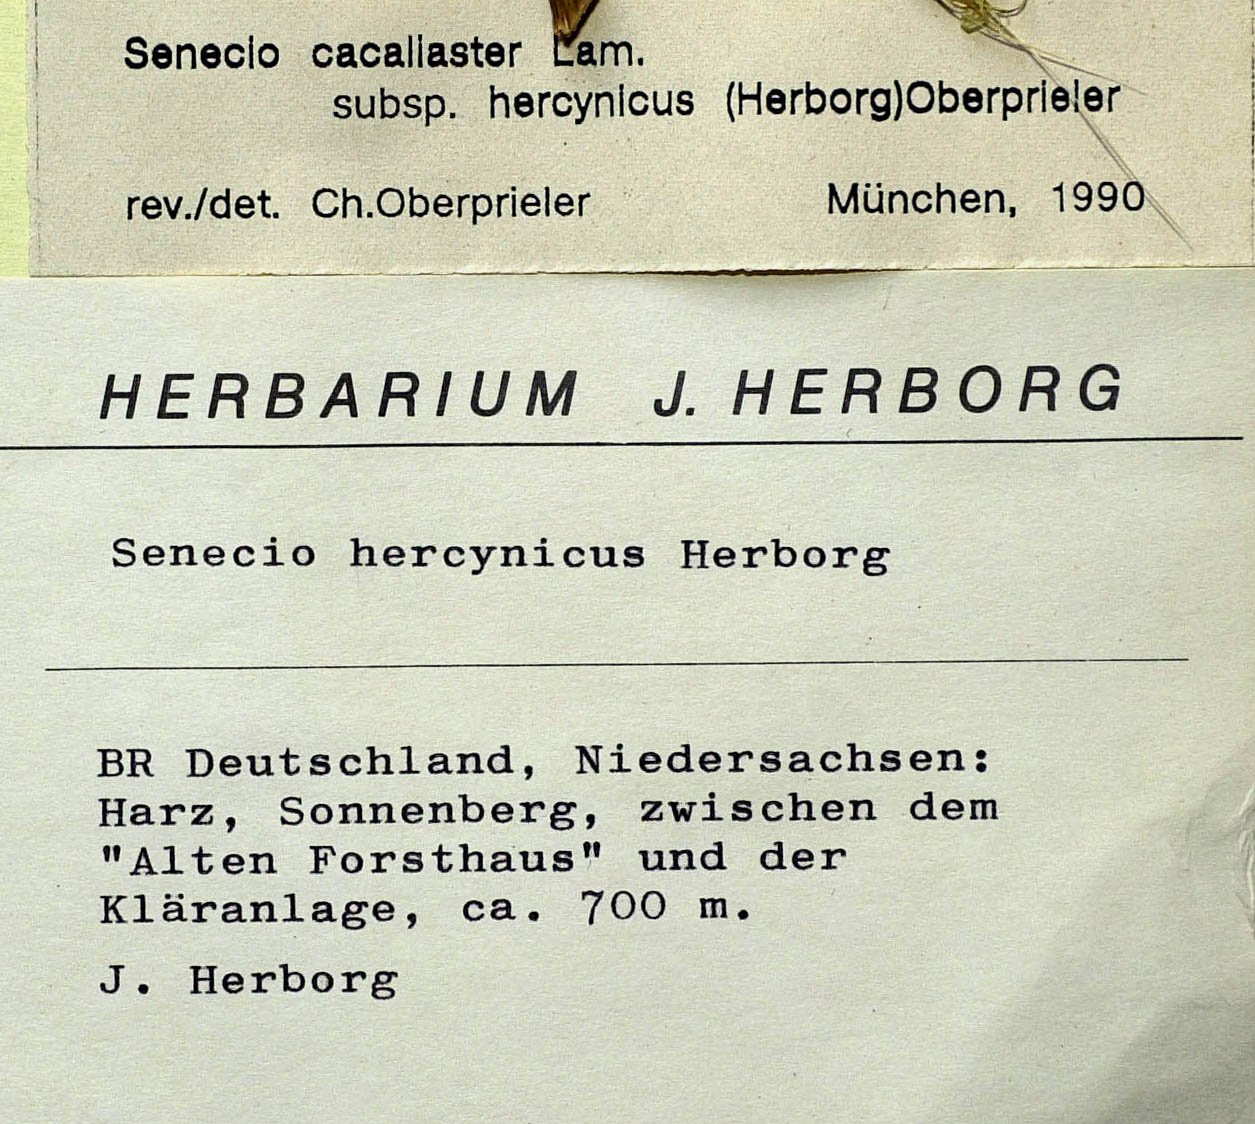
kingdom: Plantae
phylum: Tracheophyta
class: Magnoliopsida
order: Asterales
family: Asteraceae
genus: Senecio
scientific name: Senecio hercynicus
